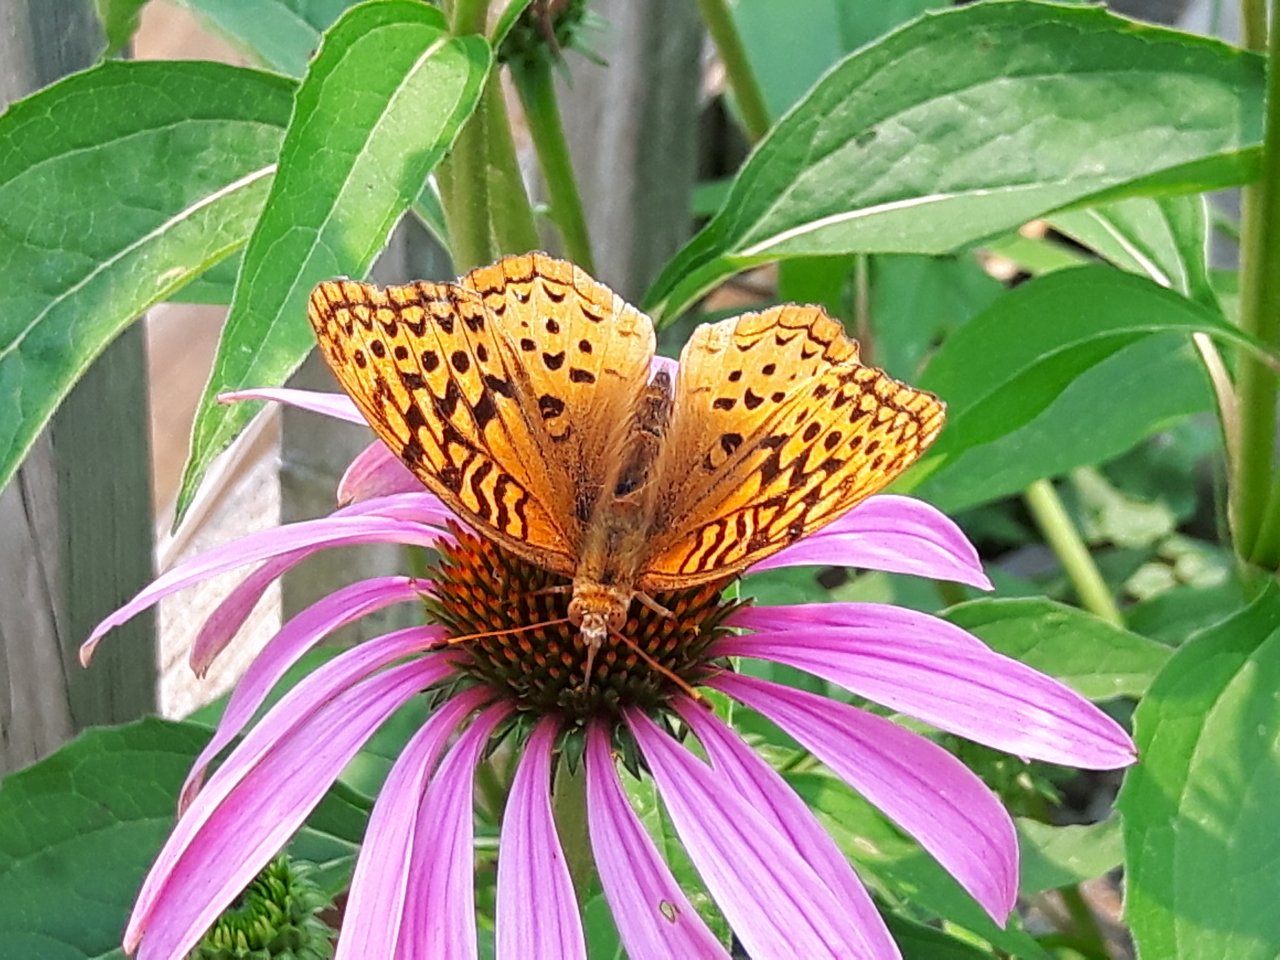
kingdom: Animalia
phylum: Arthropoda
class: Insecta
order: Lepidoptera
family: Nymphalidae
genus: Speyeria
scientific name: Speyeria cybele
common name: Great Spangled Fritillary
